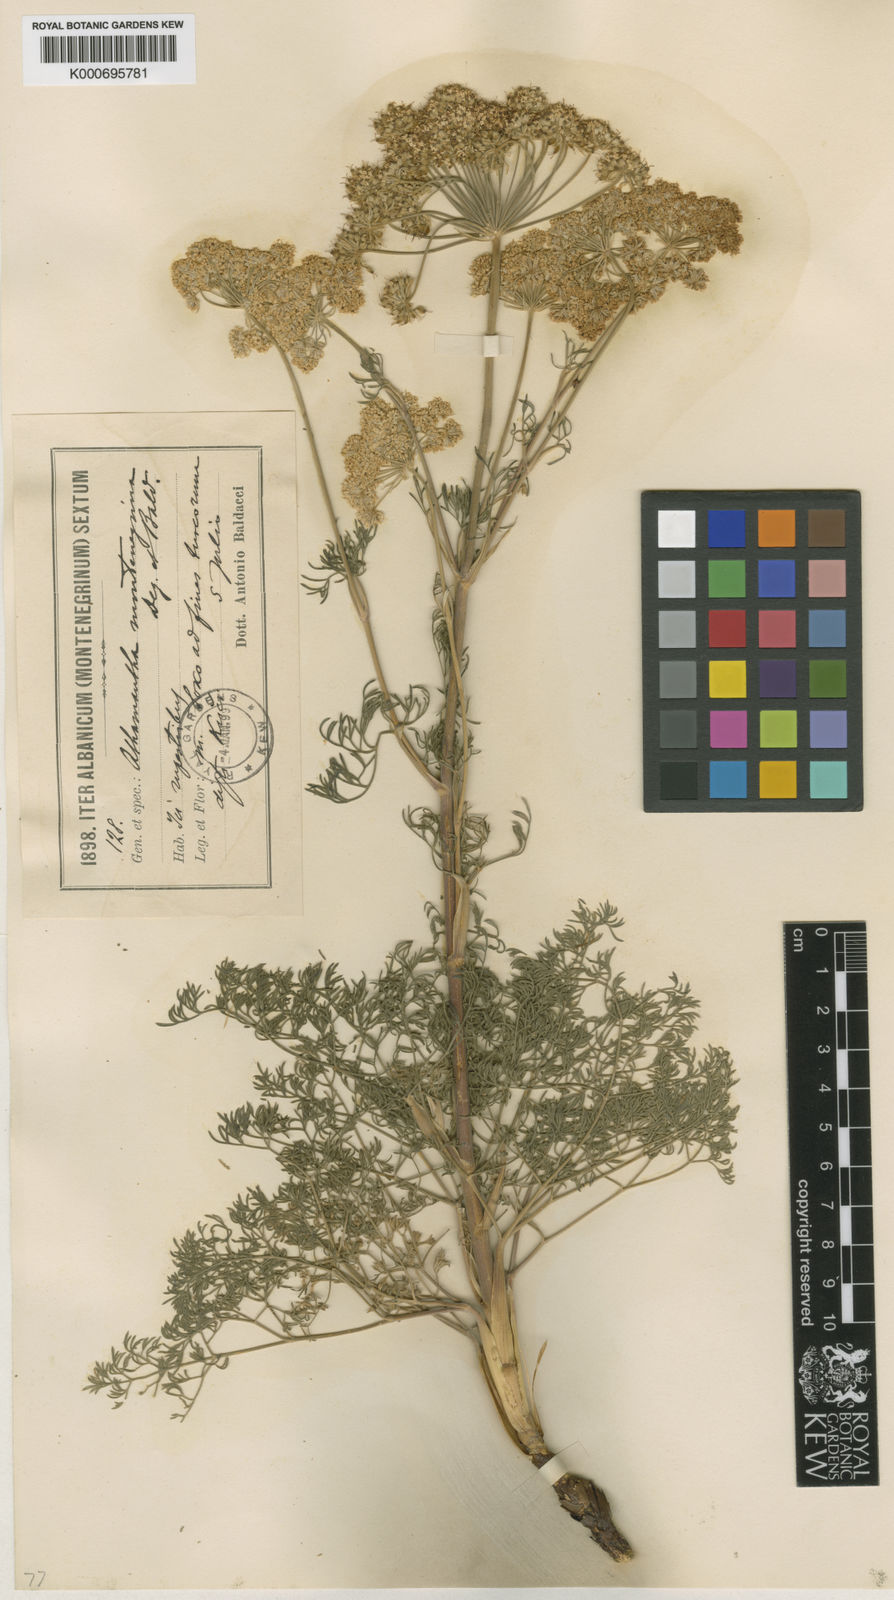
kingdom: Plantae
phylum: Tracheophyta
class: Magnoliopsida
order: Apiales
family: Apiaceae
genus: Athamanta
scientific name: Athamanta
